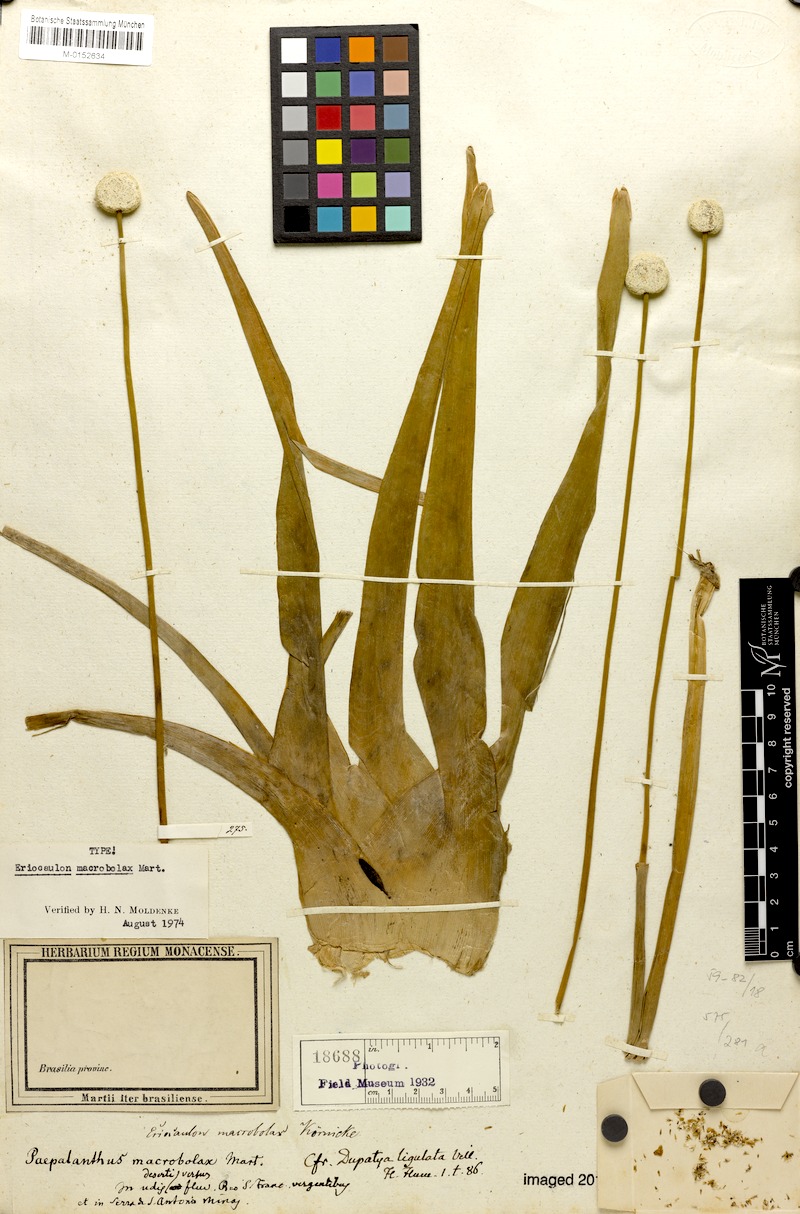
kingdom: Plantae
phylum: Tracheophyta
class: Liliopsida
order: Poales
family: Eriocaulaceae
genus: Eriocaulon
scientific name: Eriocaulon macrobolax
